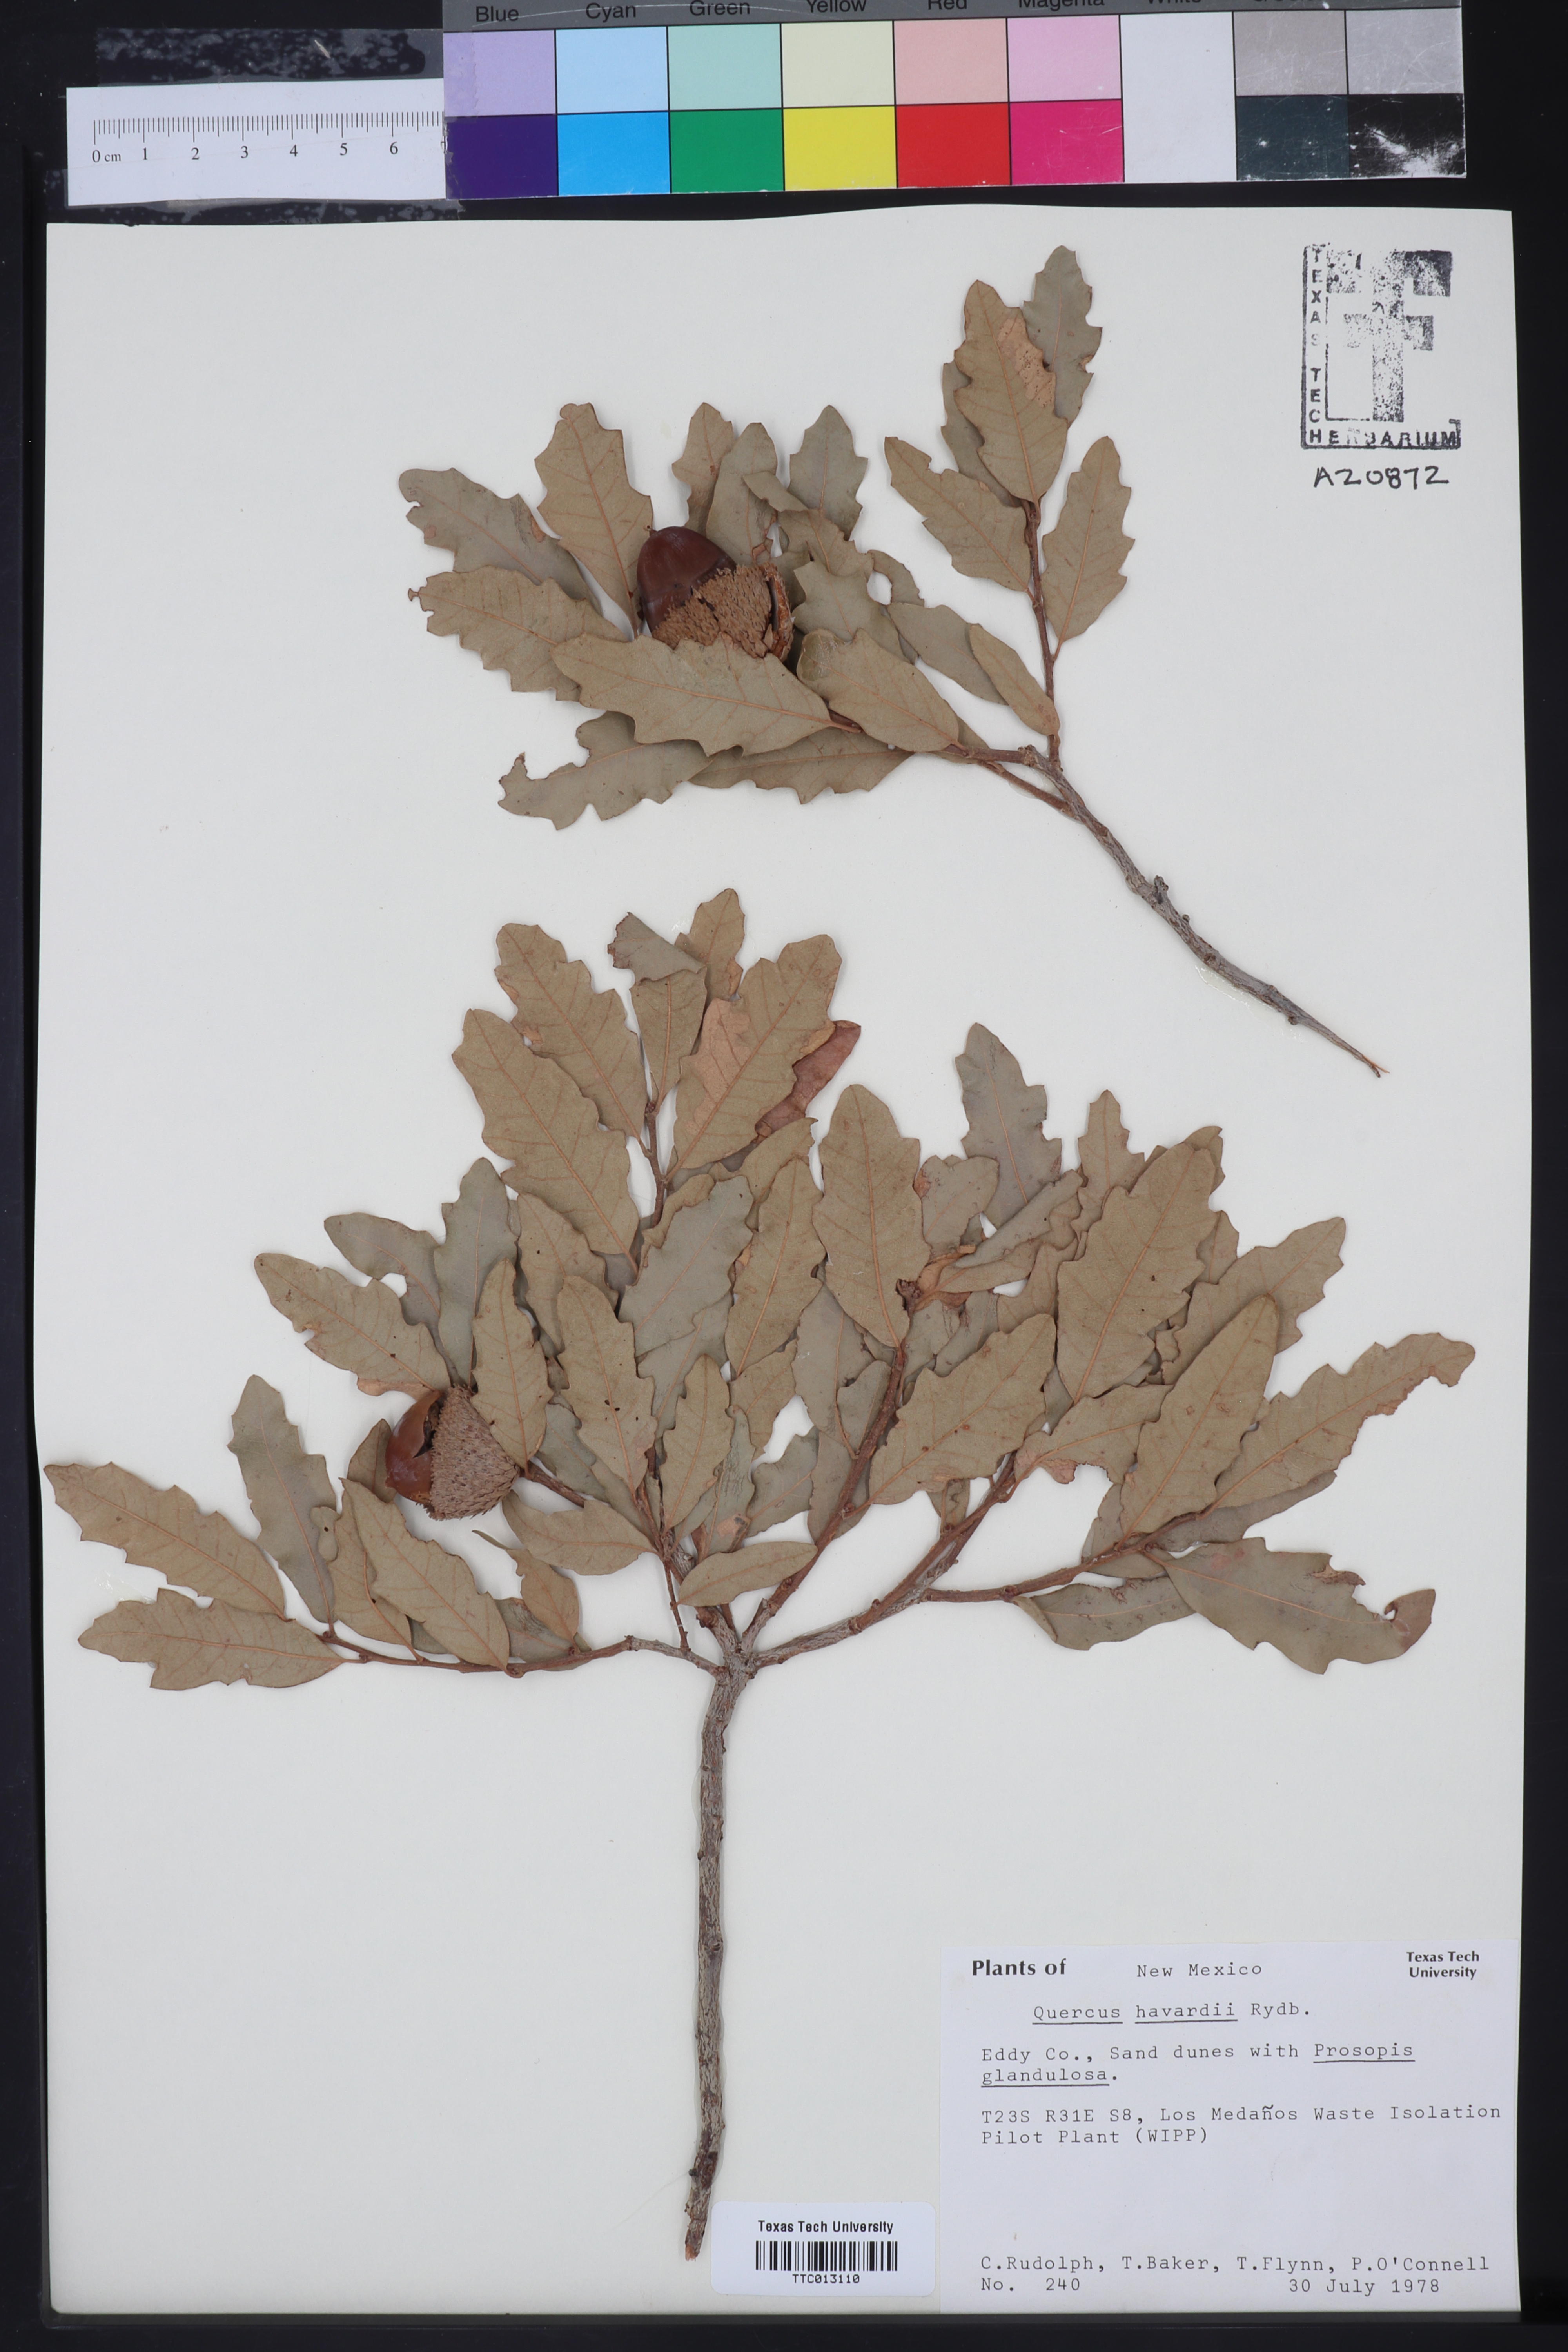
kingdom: Plantae
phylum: Tracheophyta
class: Magnoliopsida
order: Fagales
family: Fagaceae
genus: Quercus
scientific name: Quercus havardii
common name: Shinnery oak
